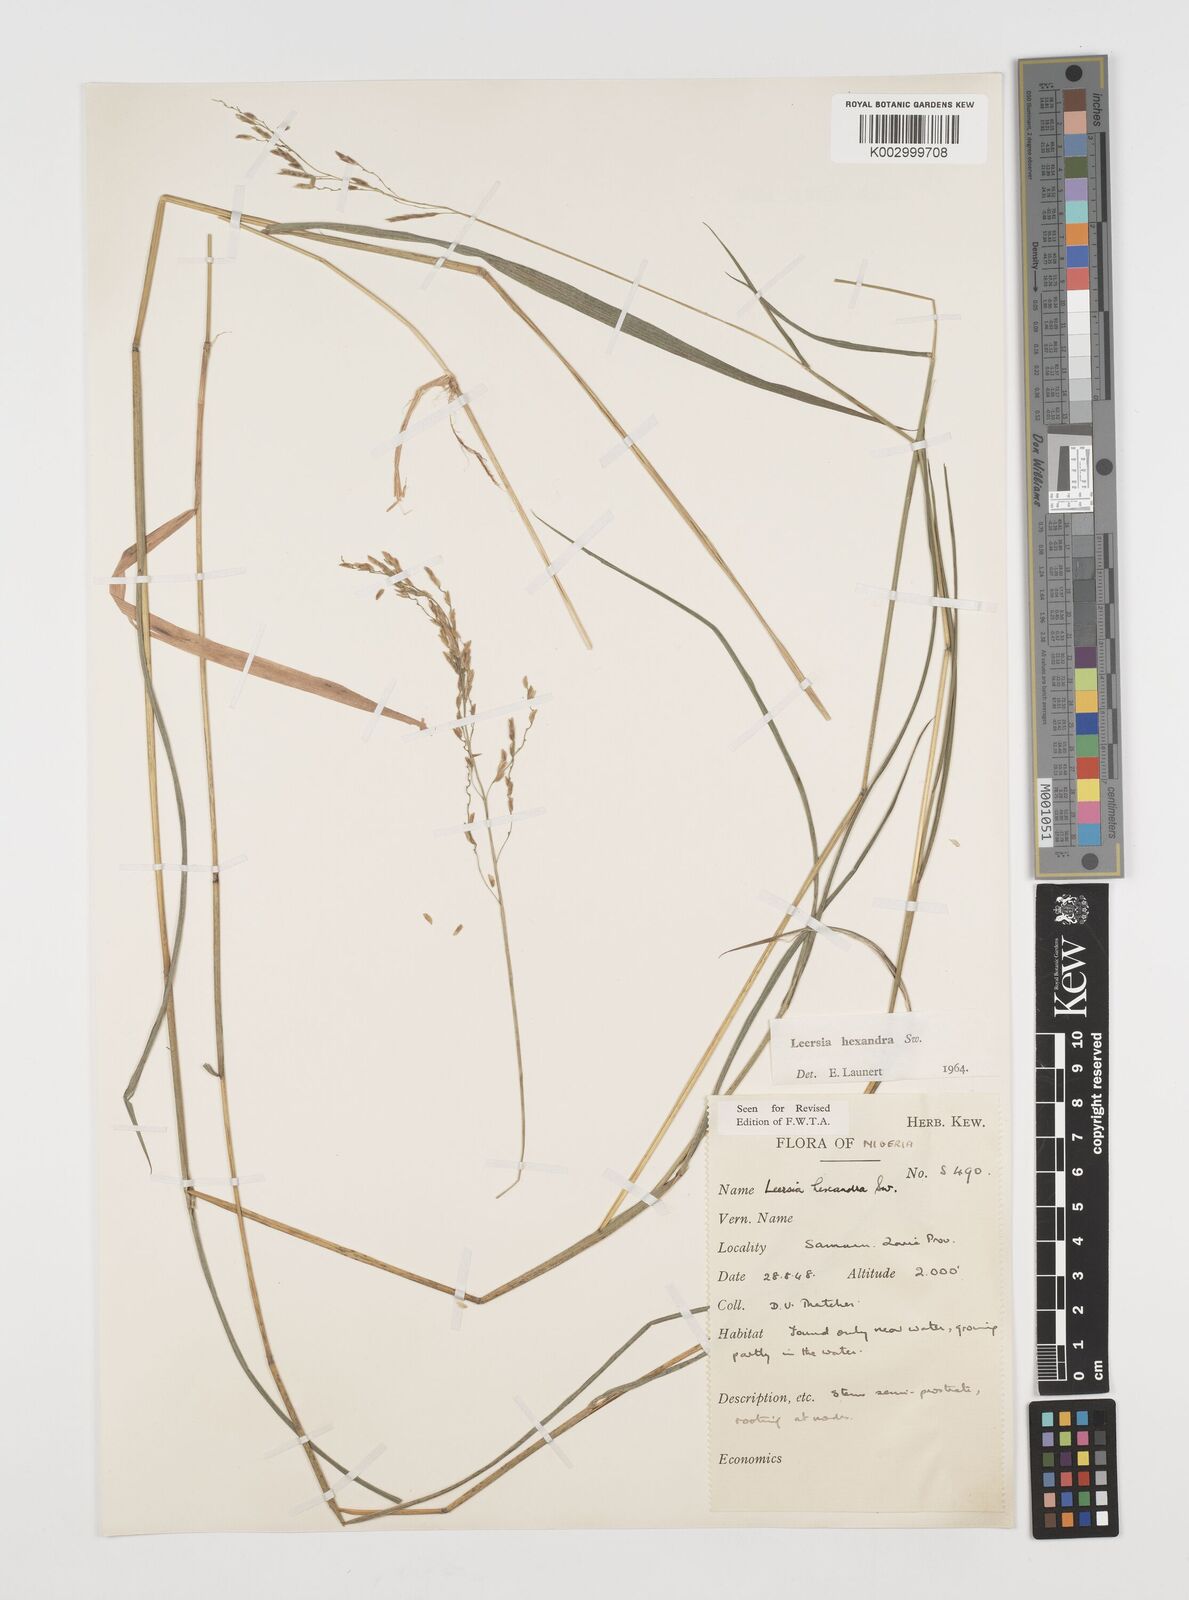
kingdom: Plantae
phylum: Tracheophyta
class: Liliopsida
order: Poales
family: Poaceae
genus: Leersia
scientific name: Leersia hexandra
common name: Southern cut grass
